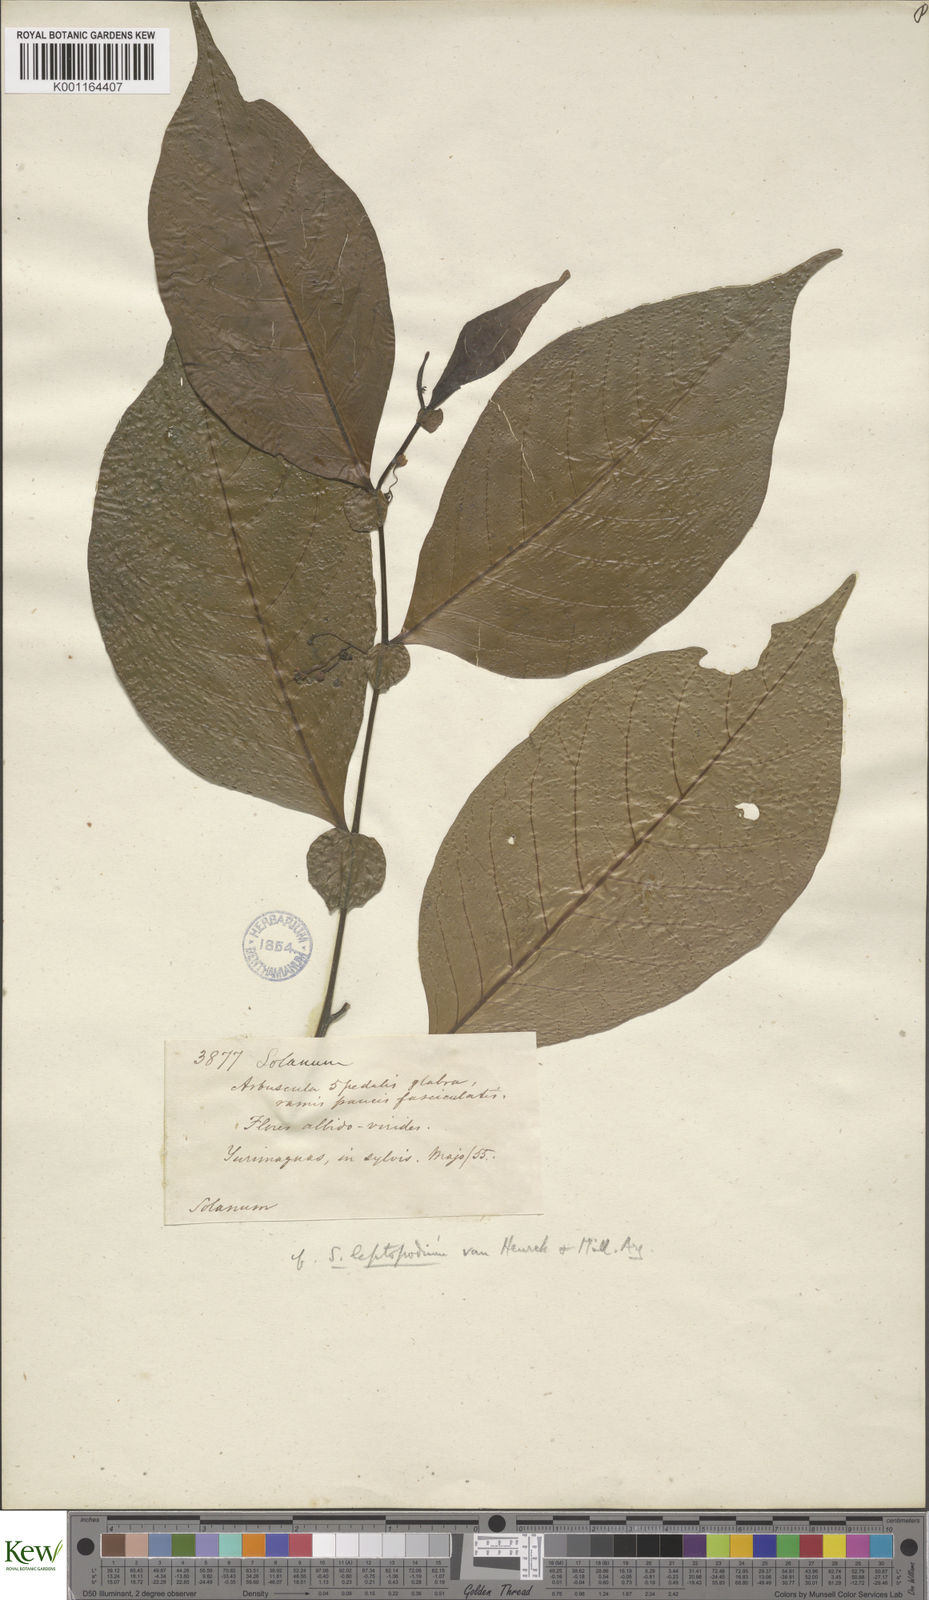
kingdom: Plantae
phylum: Tracheophyta
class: Magnoliopsida
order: Solanales
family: Solanaceae
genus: Solanum
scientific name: Solanum leptopodum
